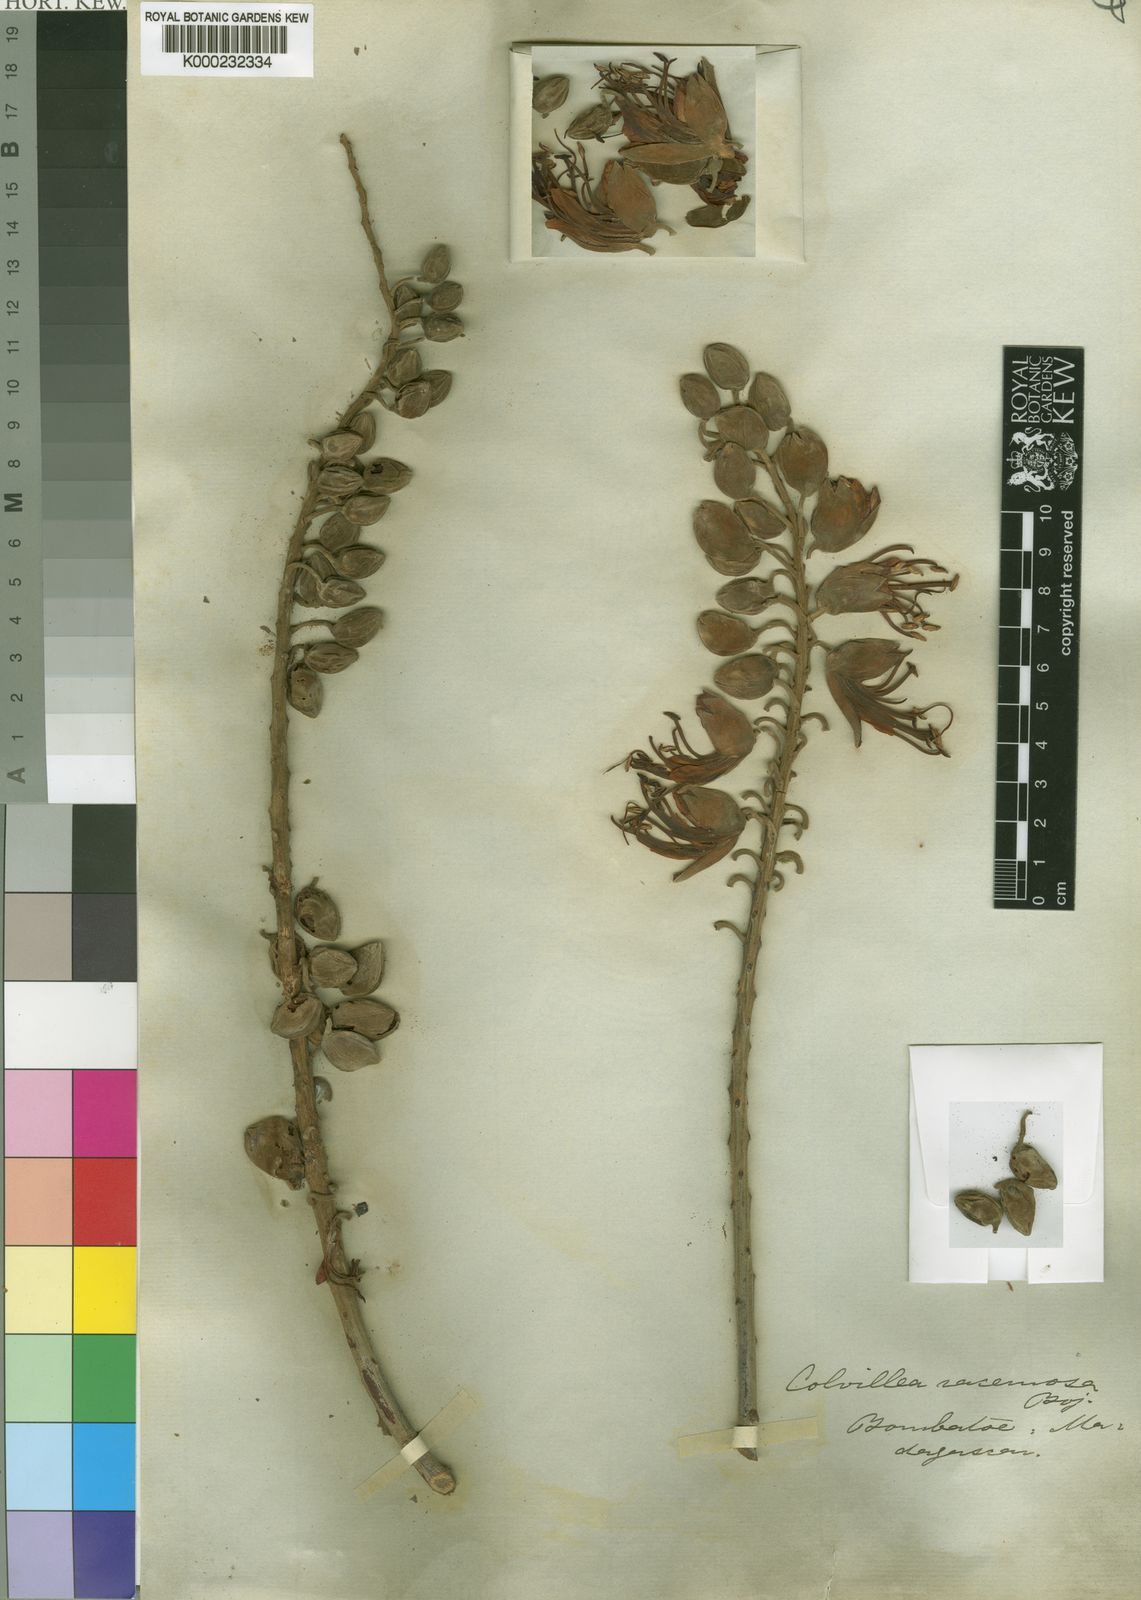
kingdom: Plantae
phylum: Tracheophyta
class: Magnoliopsida
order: Fabales
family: Fabaceae
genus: Colvillea
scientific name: Colvillea
